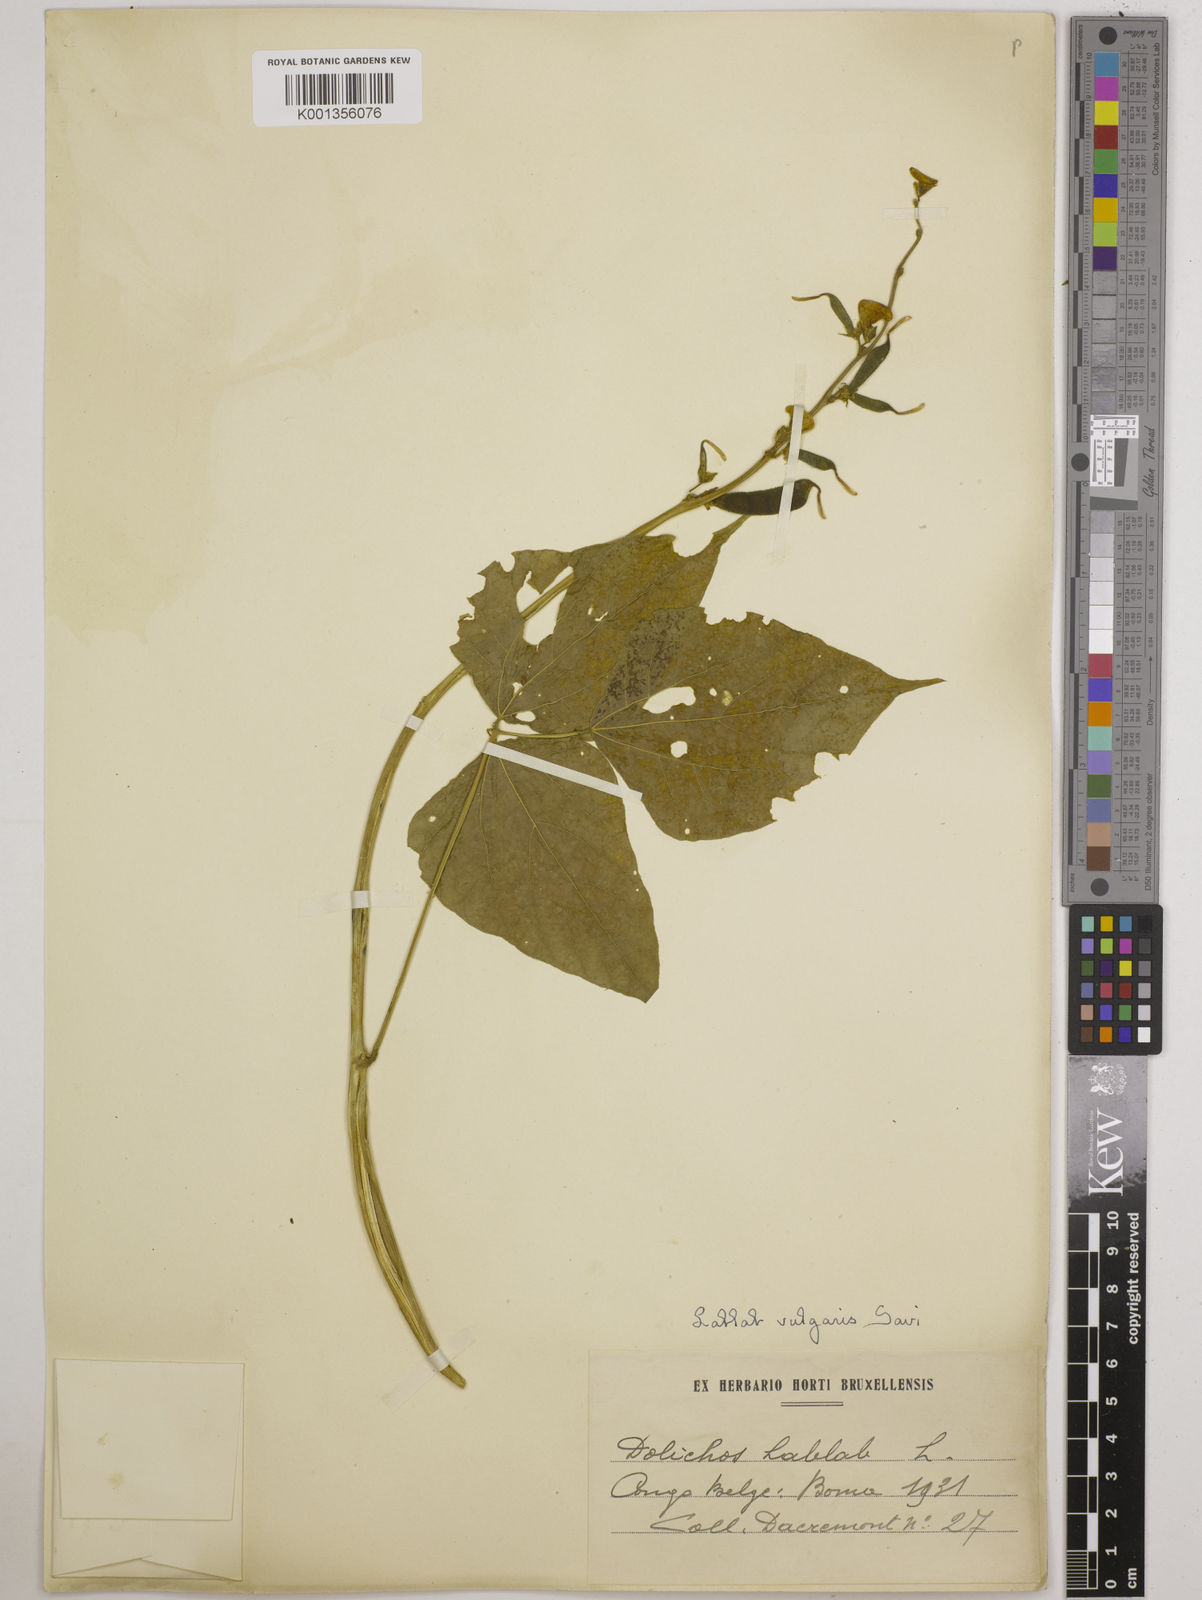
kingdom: Plantae
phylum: Tracheophyta
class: Magnoliopsida
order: Fabales
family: Fabaceae
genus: Lablab
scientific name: Lablab purpureus
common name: Lablab-bean
